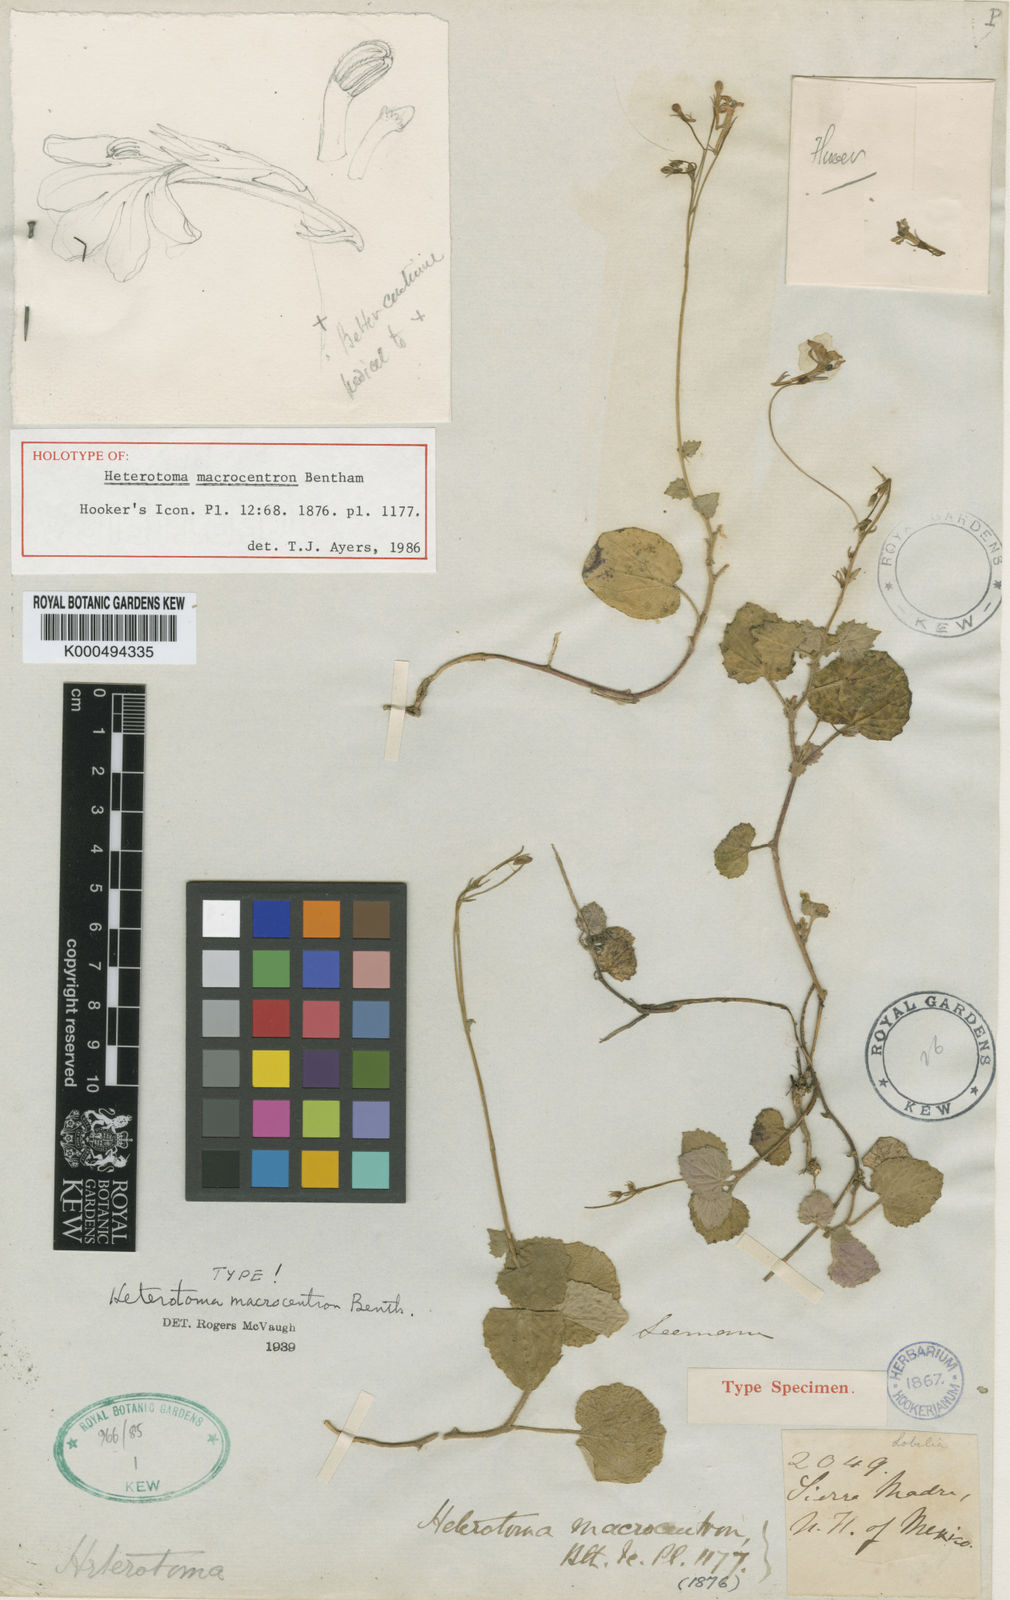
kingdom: Plantae
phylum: Tracheophyta
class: Magnoliopsida
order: Asterales
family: Campanulaceae
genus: Lobelia
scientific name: Lobelia macrocentron
